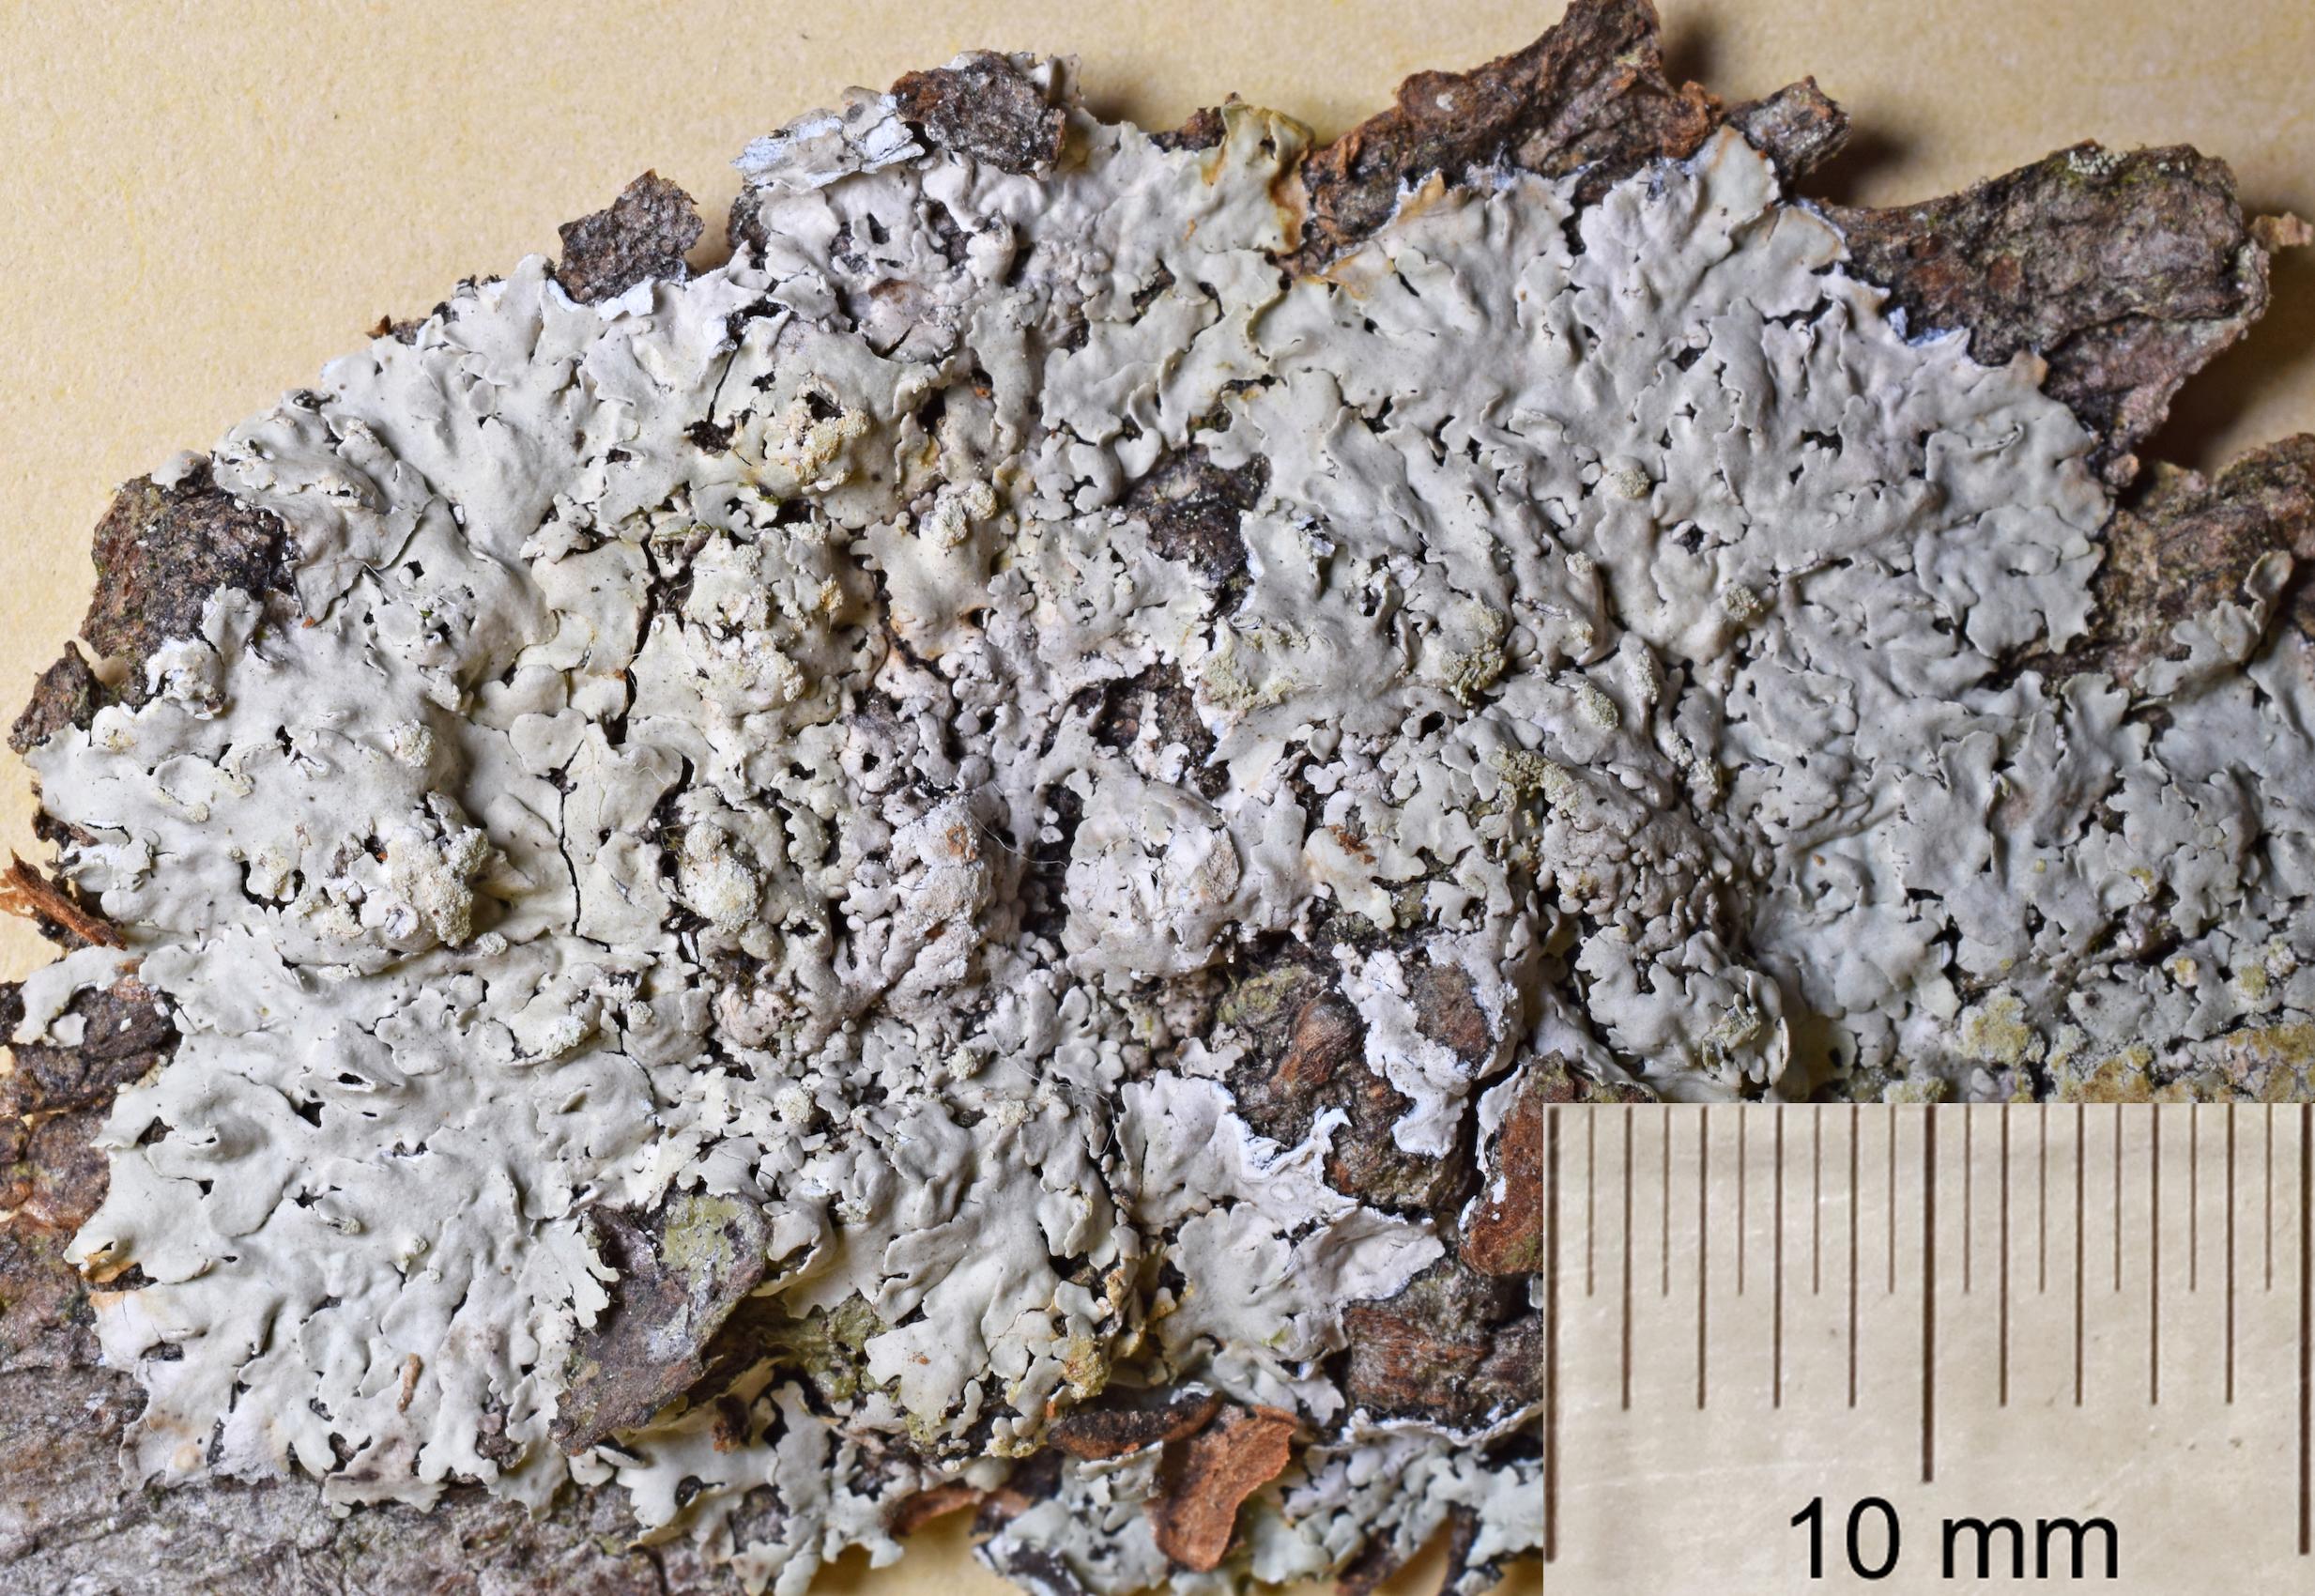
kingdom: Fungi
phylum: Ascomycota
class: Lecanoromycetes
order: Caliciales
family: Physciaceae
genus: Physcia
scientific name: Physcia
